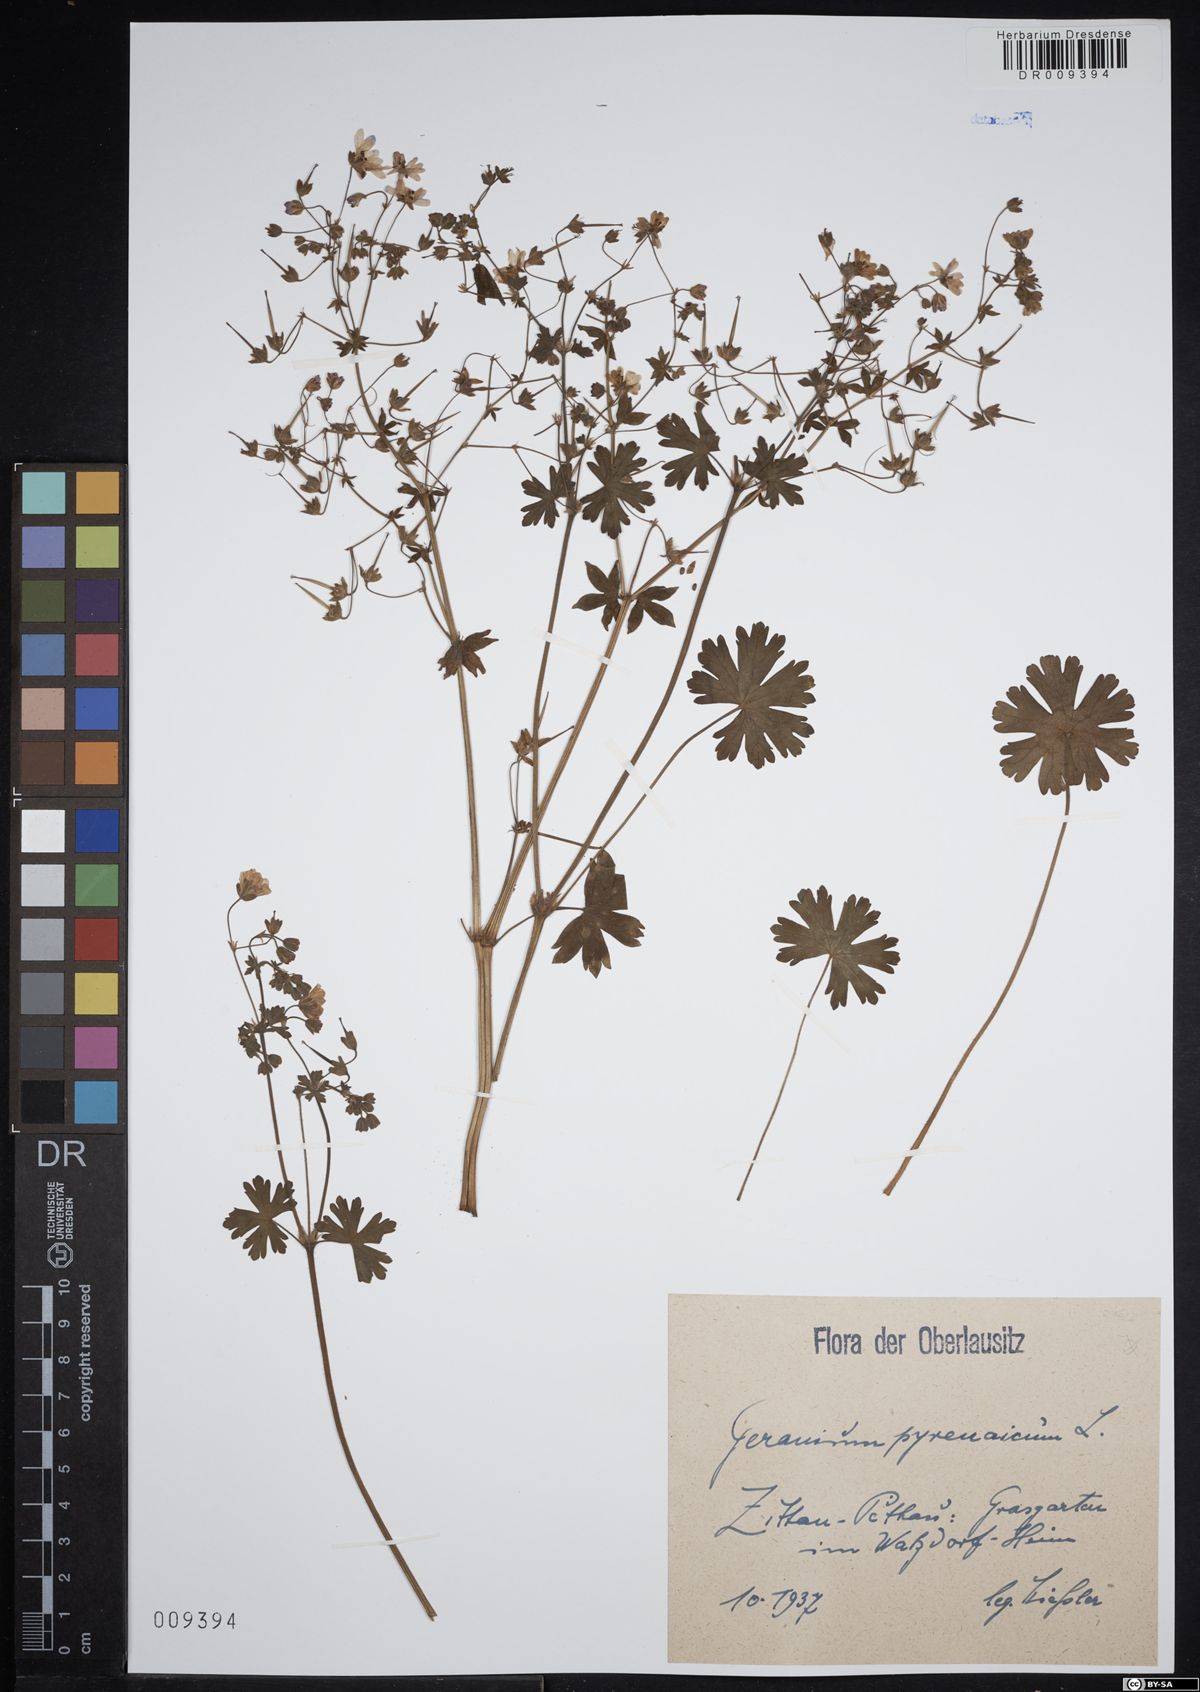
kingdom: Plantae
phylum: Tracheophyta
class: Magnoliopsida
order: Geraniales
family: Geraniaceae
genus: Geranium
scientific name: Geranium pyrenaicum
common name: Hedgerow crane's-bill
